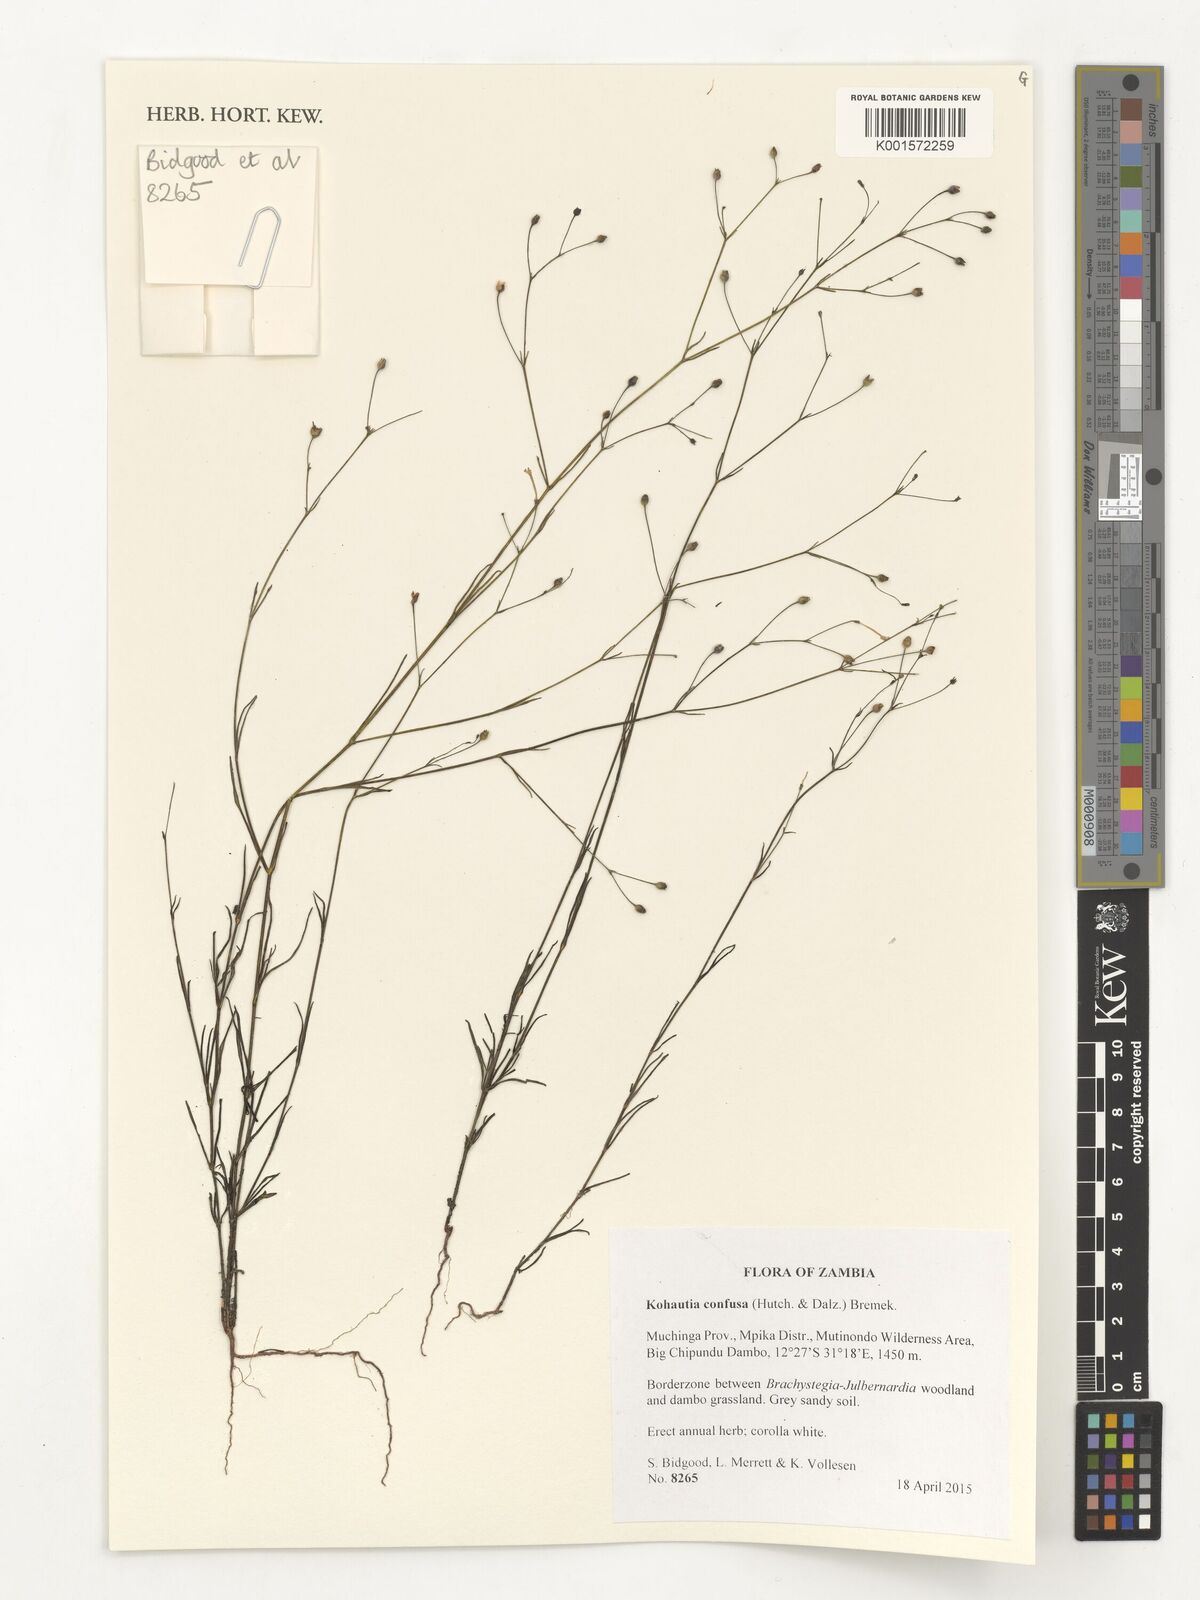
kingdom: Plantae
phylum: Tracheophyta
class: Magnoliopsida
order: Gentianales
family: Rubiaceae
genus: Kohautia
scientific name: Kohautia confusa
